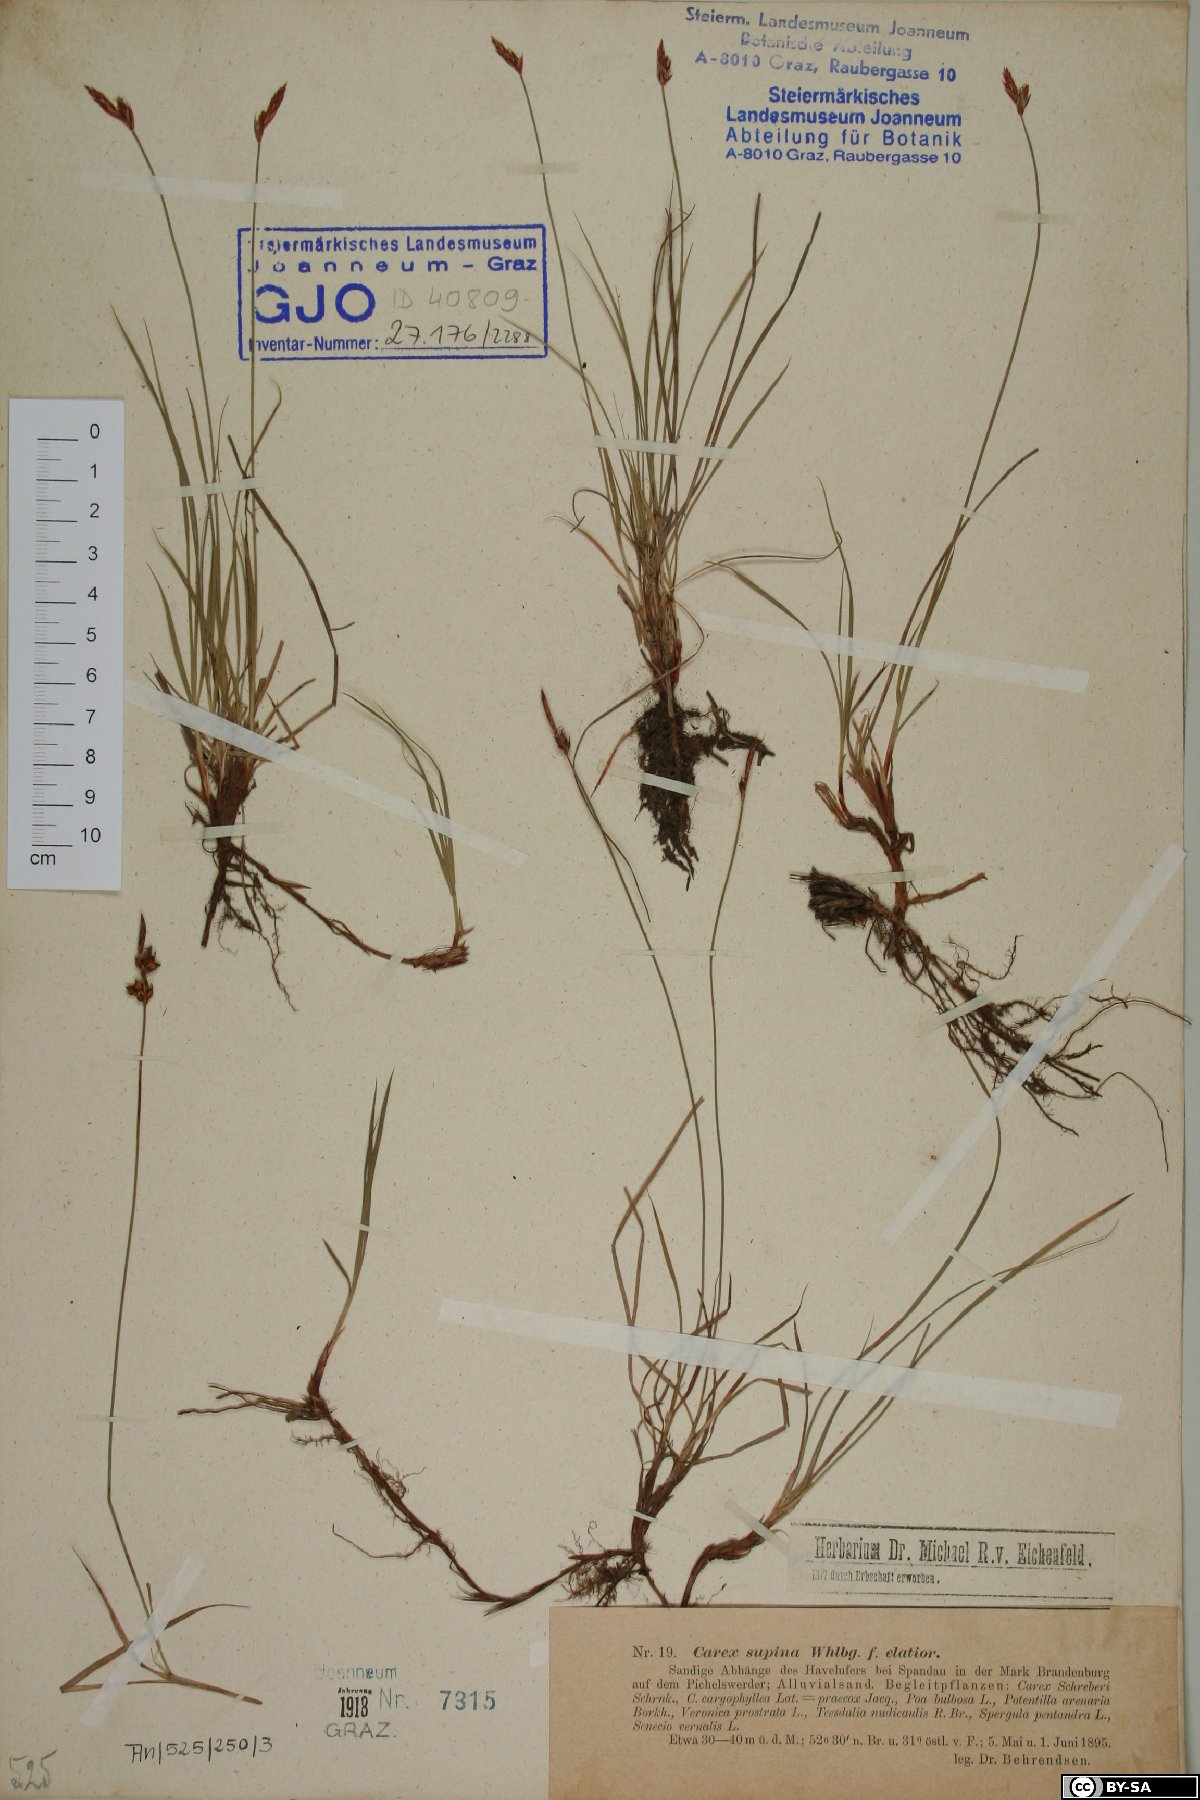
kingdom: Plantae
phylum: Tracheophyta
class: Liliopsida
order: Poales
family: Cyperaceae
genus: Carex
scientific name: Carex supina
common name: Lying-back sedge
